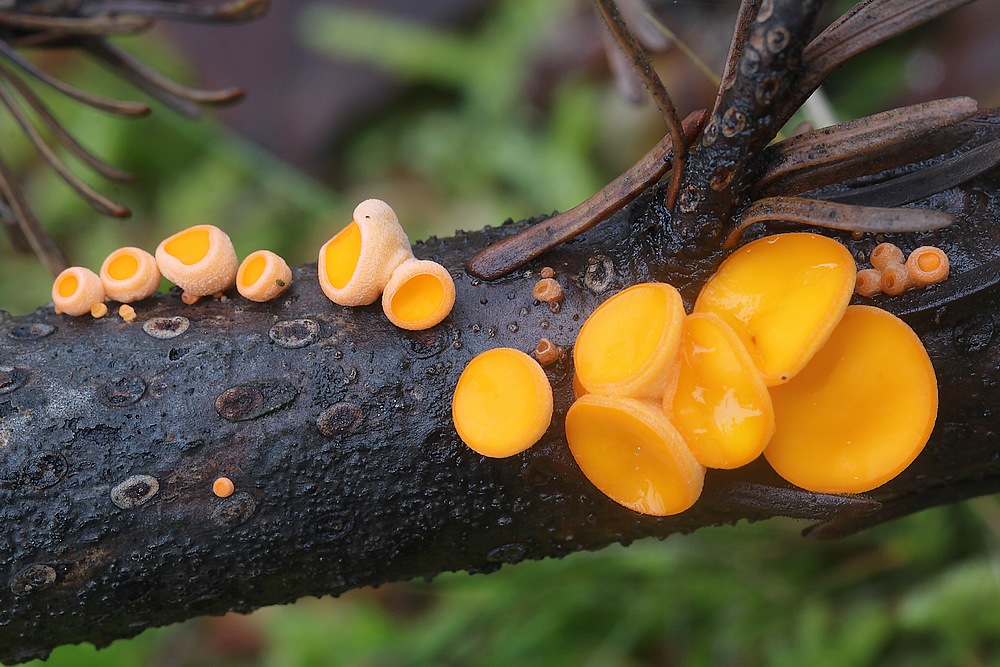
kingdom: Fungi
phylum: Ascomycota
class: Pezizomycetes
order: Pezizales
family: Sarcoscyphaceae
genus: Pithya
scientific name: Pithya vulgaris
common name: stor dukatbæger
